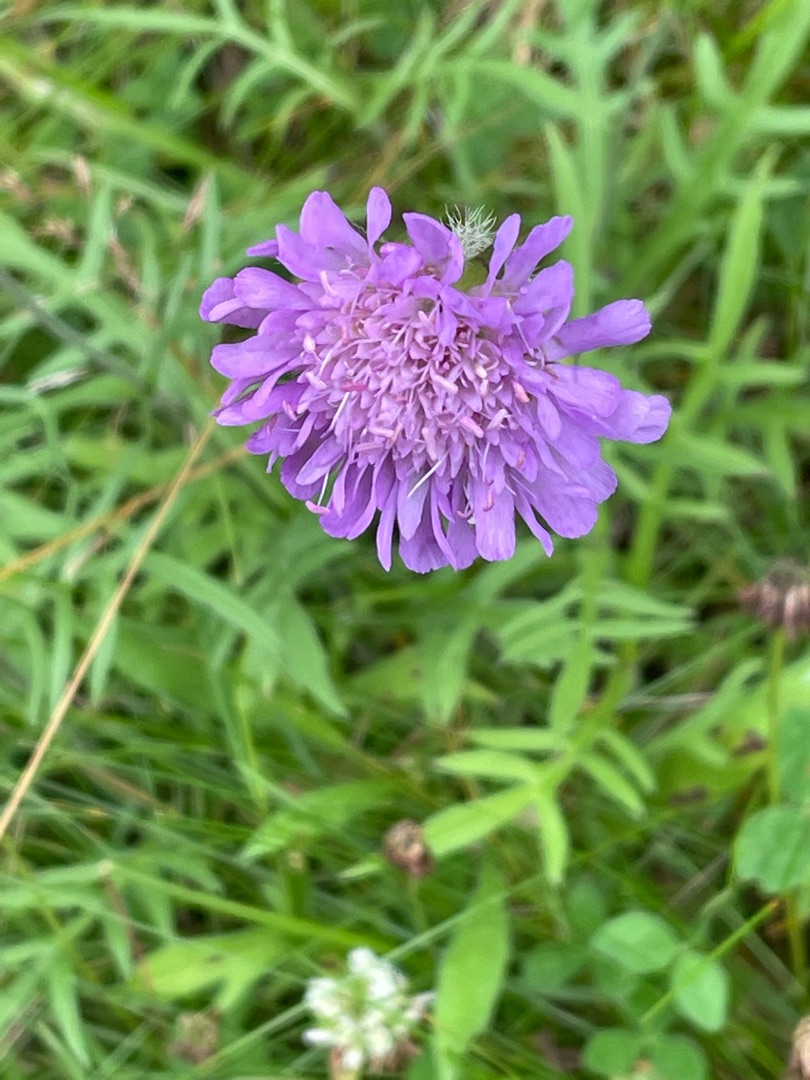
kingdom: Plantae
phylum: Tracheophyta
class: Magnoliopsida
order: Dipsacales
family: Caprifoliaceae
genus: Knautia
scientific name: Knautia arvensis
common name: Blåhat
